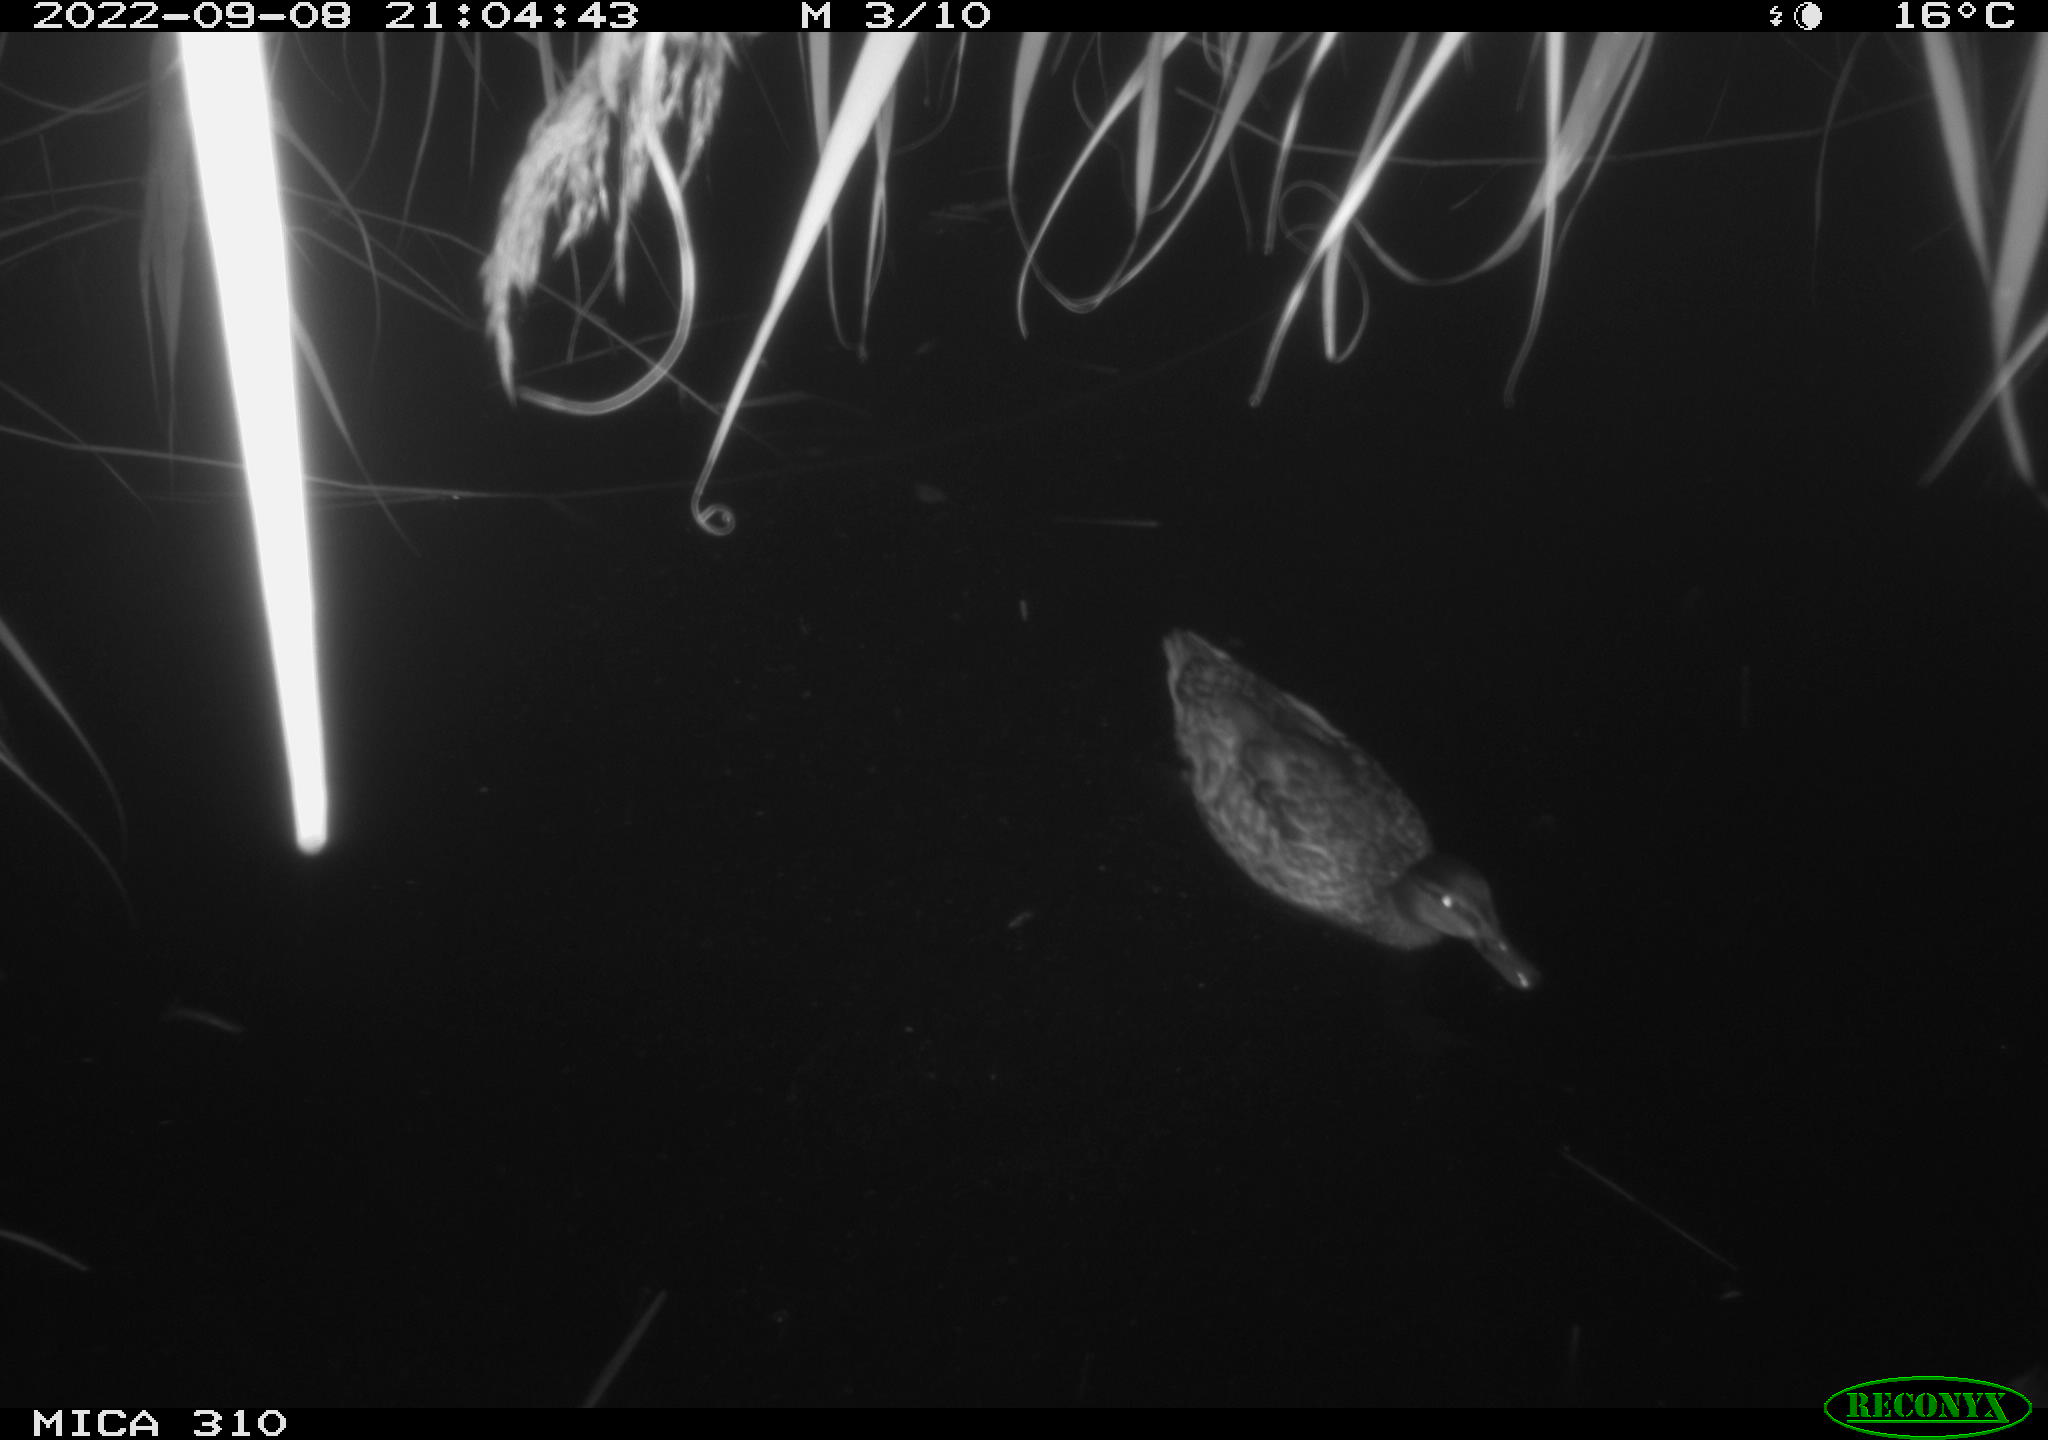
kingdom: Animalia
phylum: Chordata
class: Aves
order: Anseriformes
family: Anatidae
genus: Anas
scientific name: Anas
